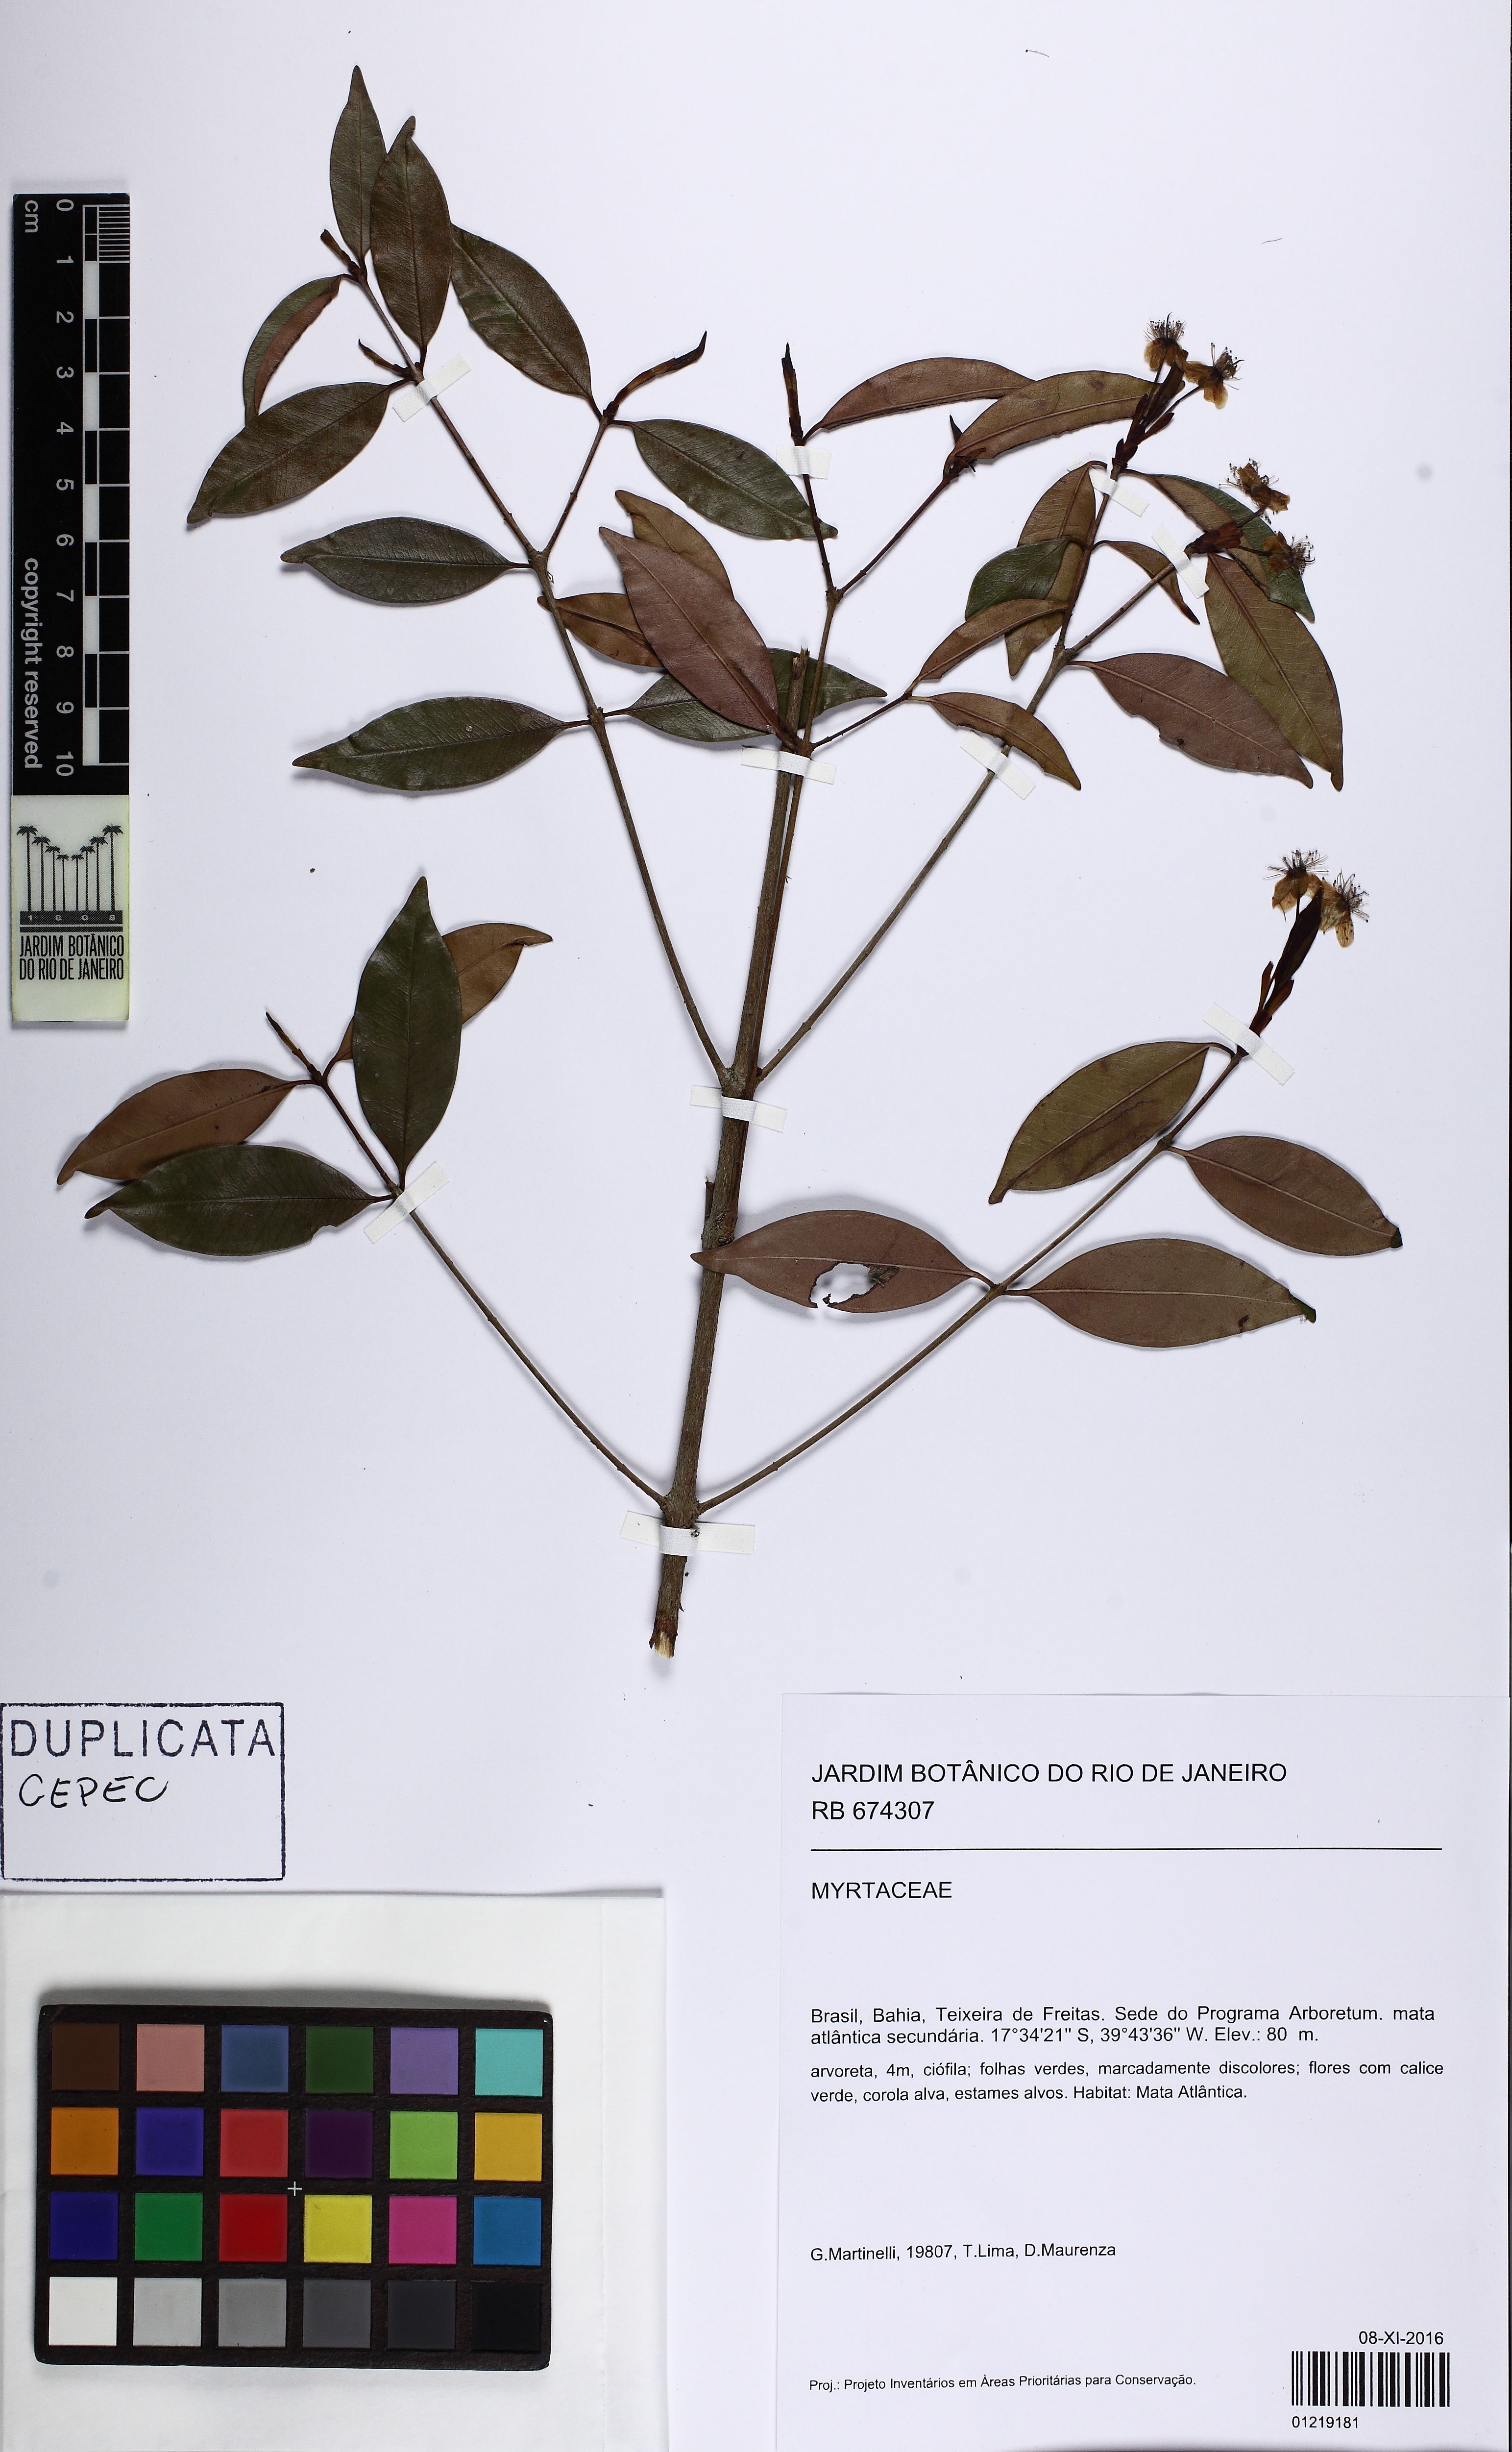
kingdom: Plantae
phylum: Tracheophyta
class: Magnoliopsida
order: Myrtales
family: Myrtaceae
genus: Eugenia
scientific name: Eugenia
